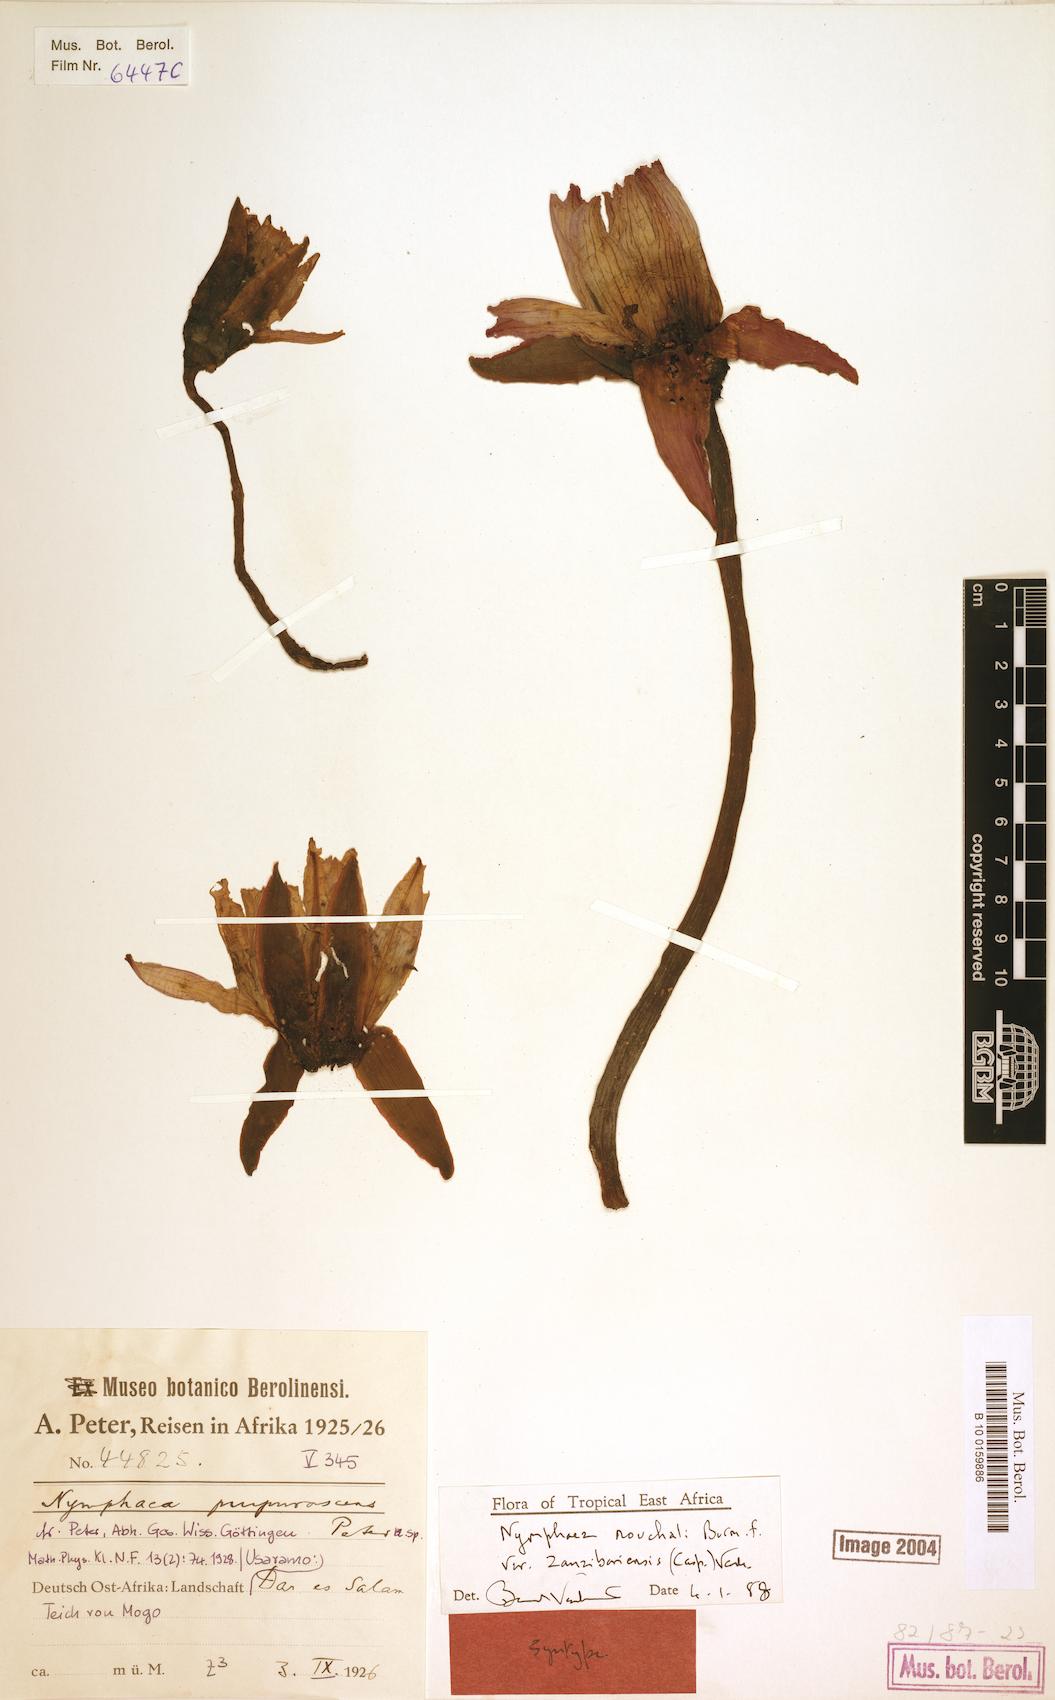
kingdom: Plantae
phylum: Tracheophyta
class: Magnoliopsida
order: Nymphaeales
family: Nymphaeaceae
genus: Nymphaea
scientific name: Nymphaea nouchali
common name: Blue lotus
